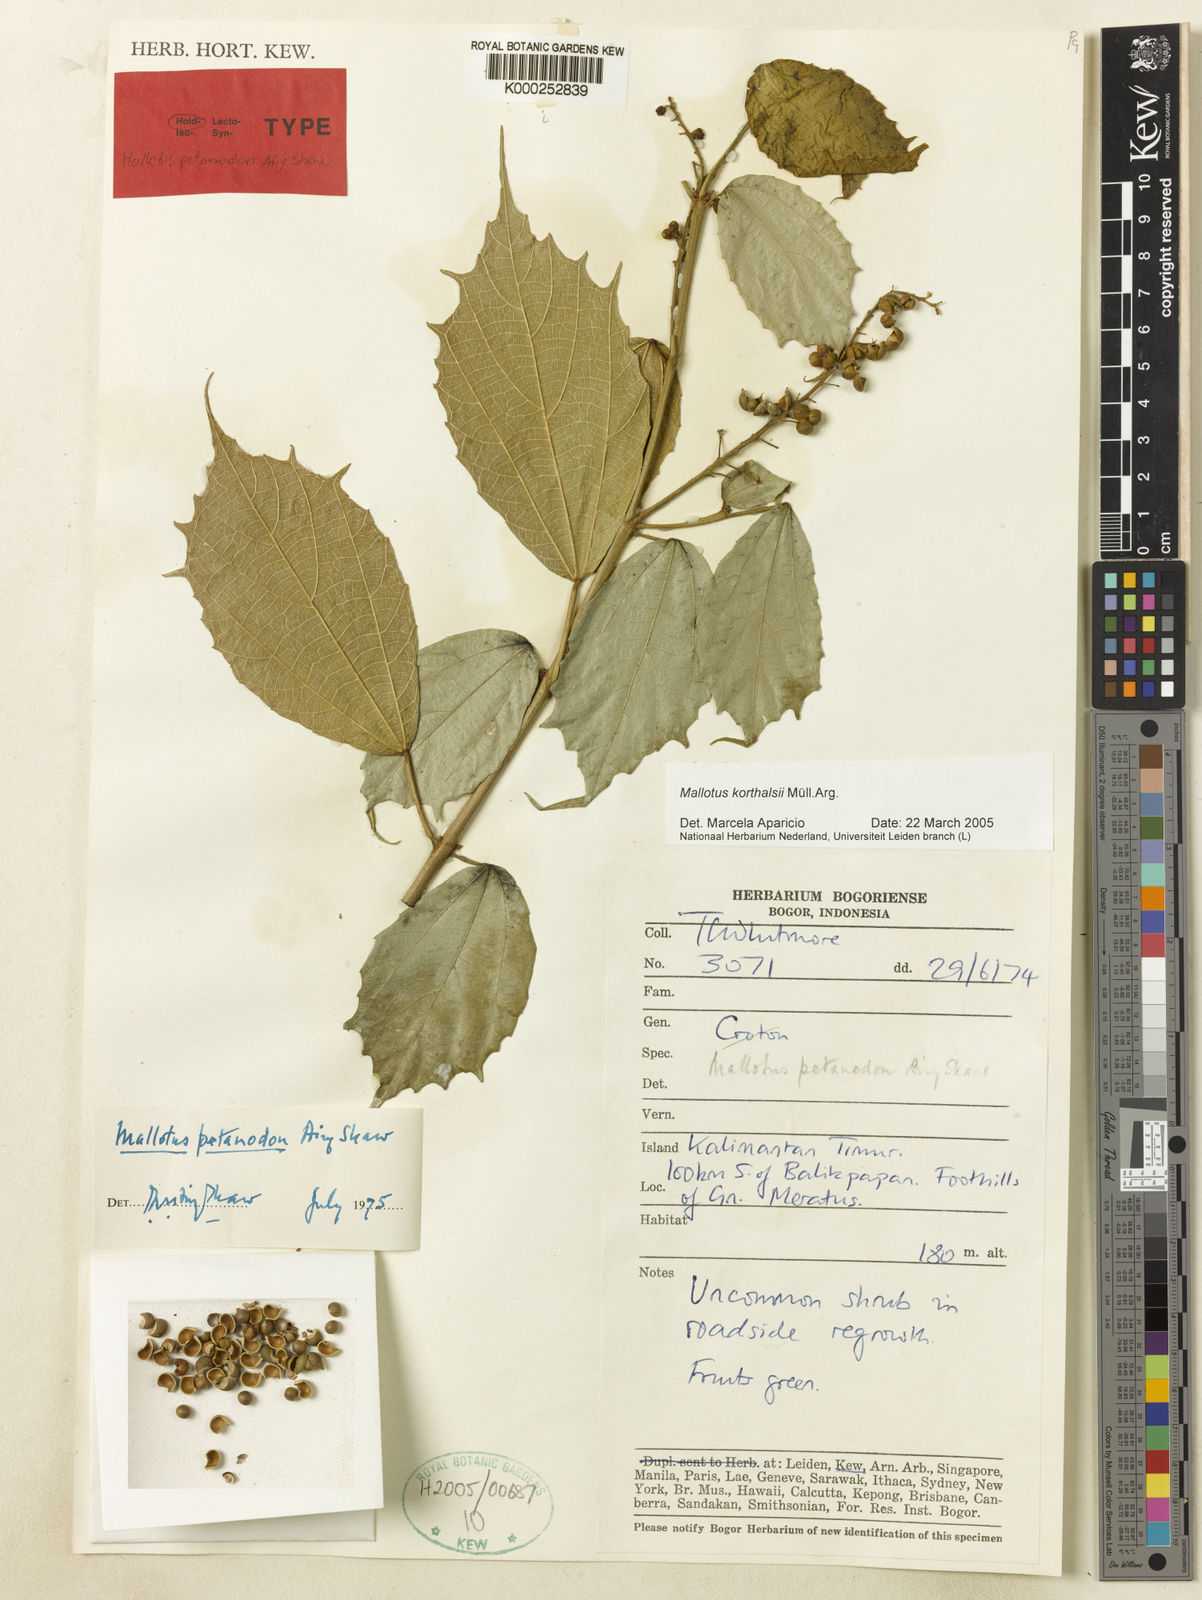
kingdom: Plantae
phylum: Tracheophyta
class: Magnoliopsida
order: Malpighiales
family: Euphorbiaceae
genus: Mallotus
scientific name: Mallotus
